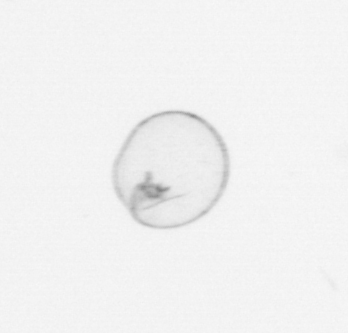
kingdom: Chromista
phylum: Myzozoa
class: Dinophyceae
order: Noctilucales
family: Noctilucaceae
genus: Noctiluca
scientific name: Noctiluca scintillans
